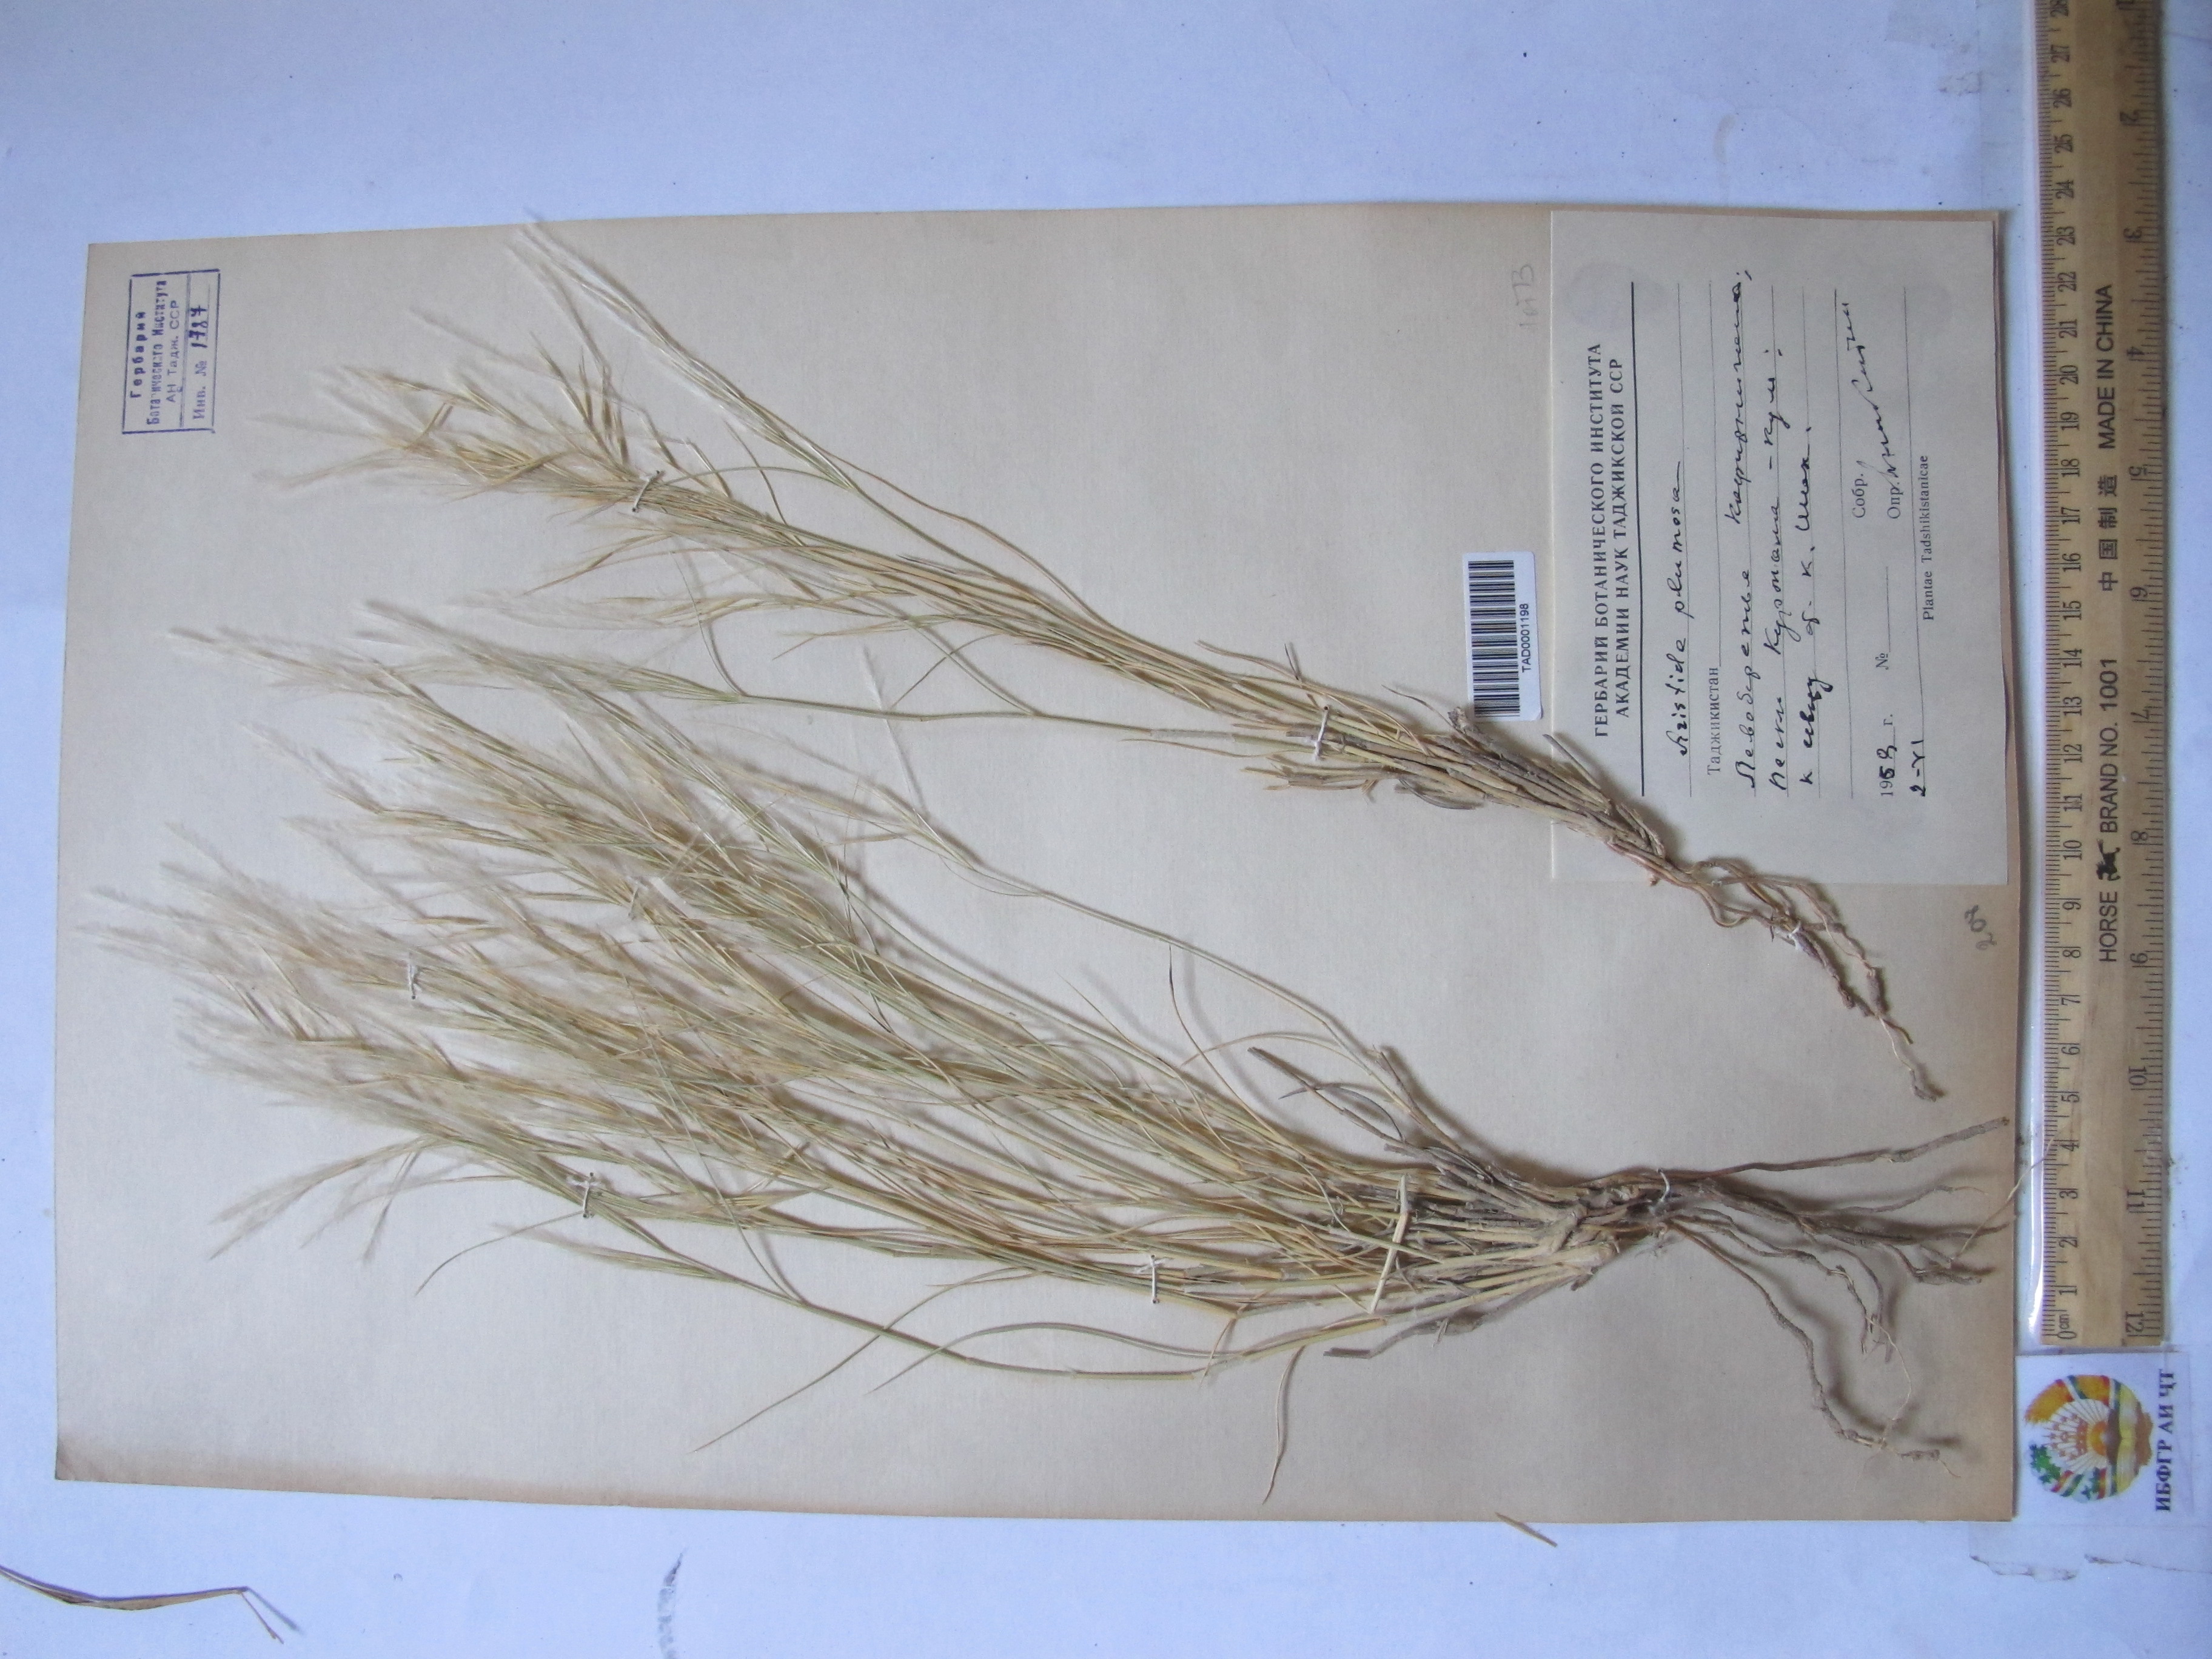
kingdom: Plantae
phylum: Tracheophyta
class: Liliopsida
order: Poales
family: Poaceae
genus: Stipagrostis
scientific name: Stipagrostis plumosa
